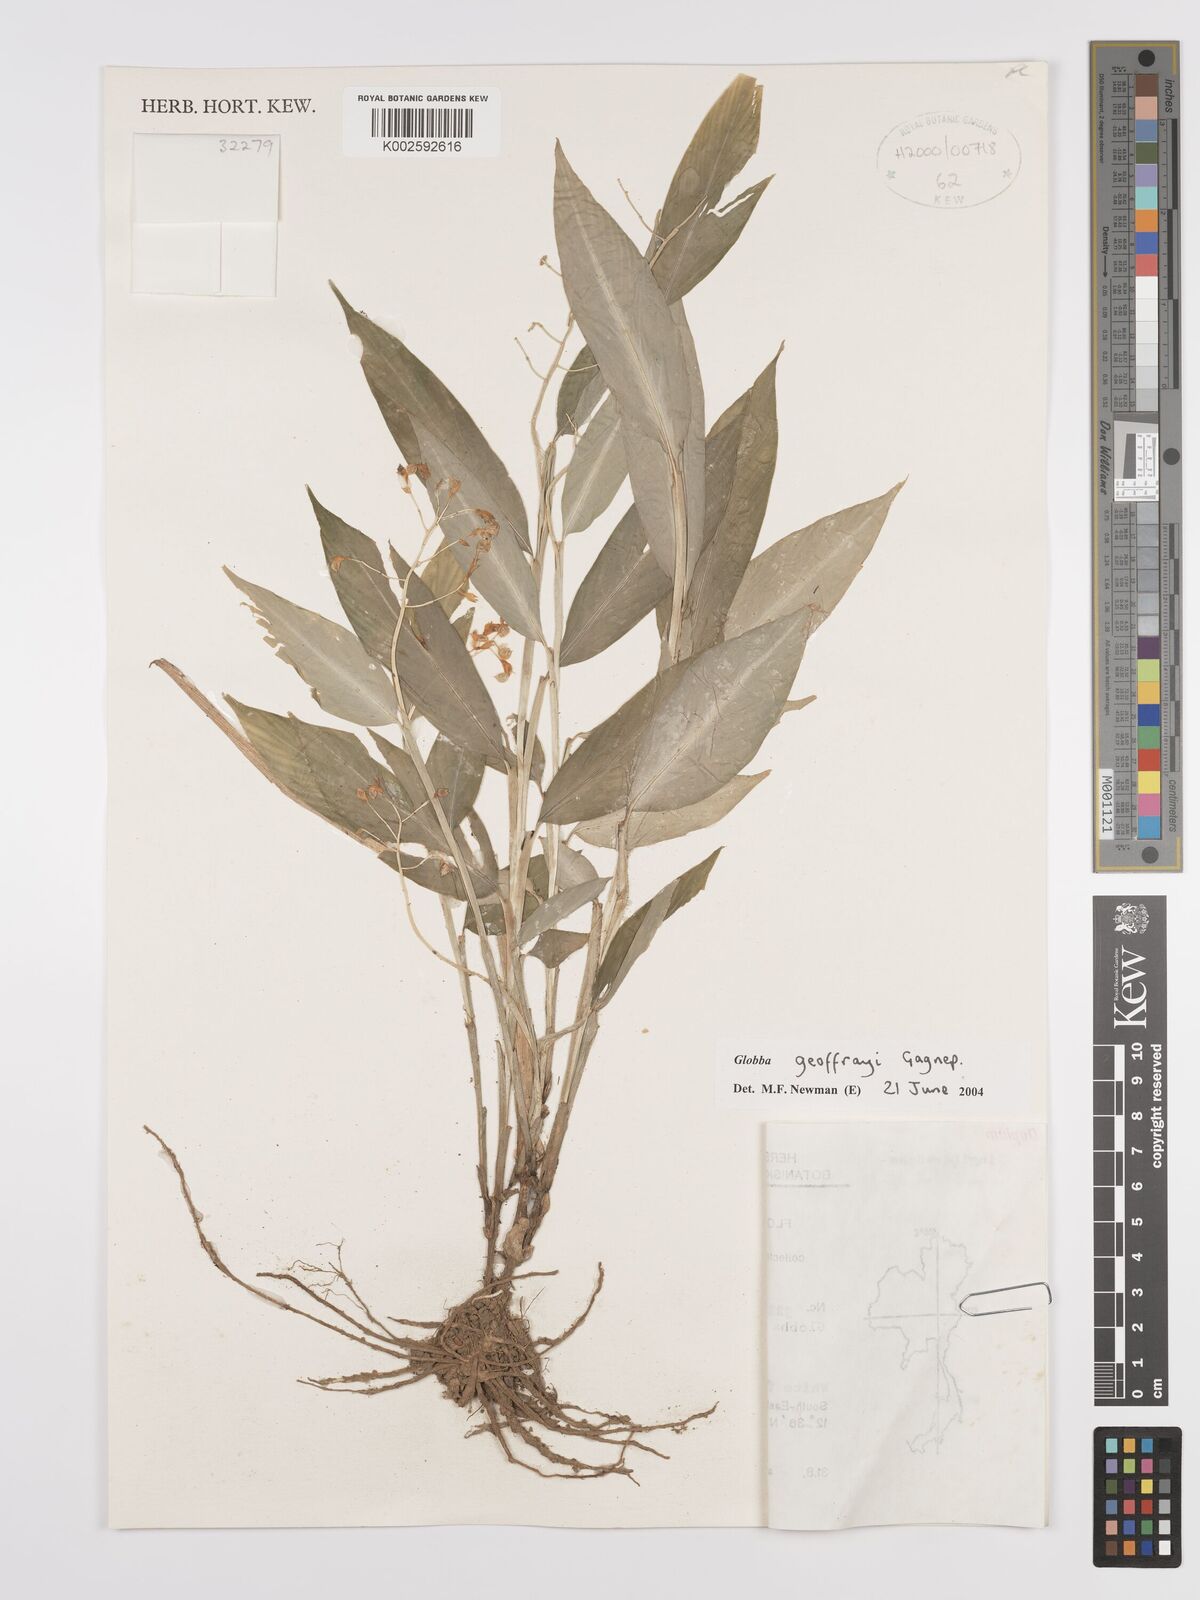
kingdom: Plantae
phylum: Tracheophyta
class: Liliopsida
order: Zingiberales
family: Zingiberaceae
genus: Globba
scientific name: Globba geoffrayi
